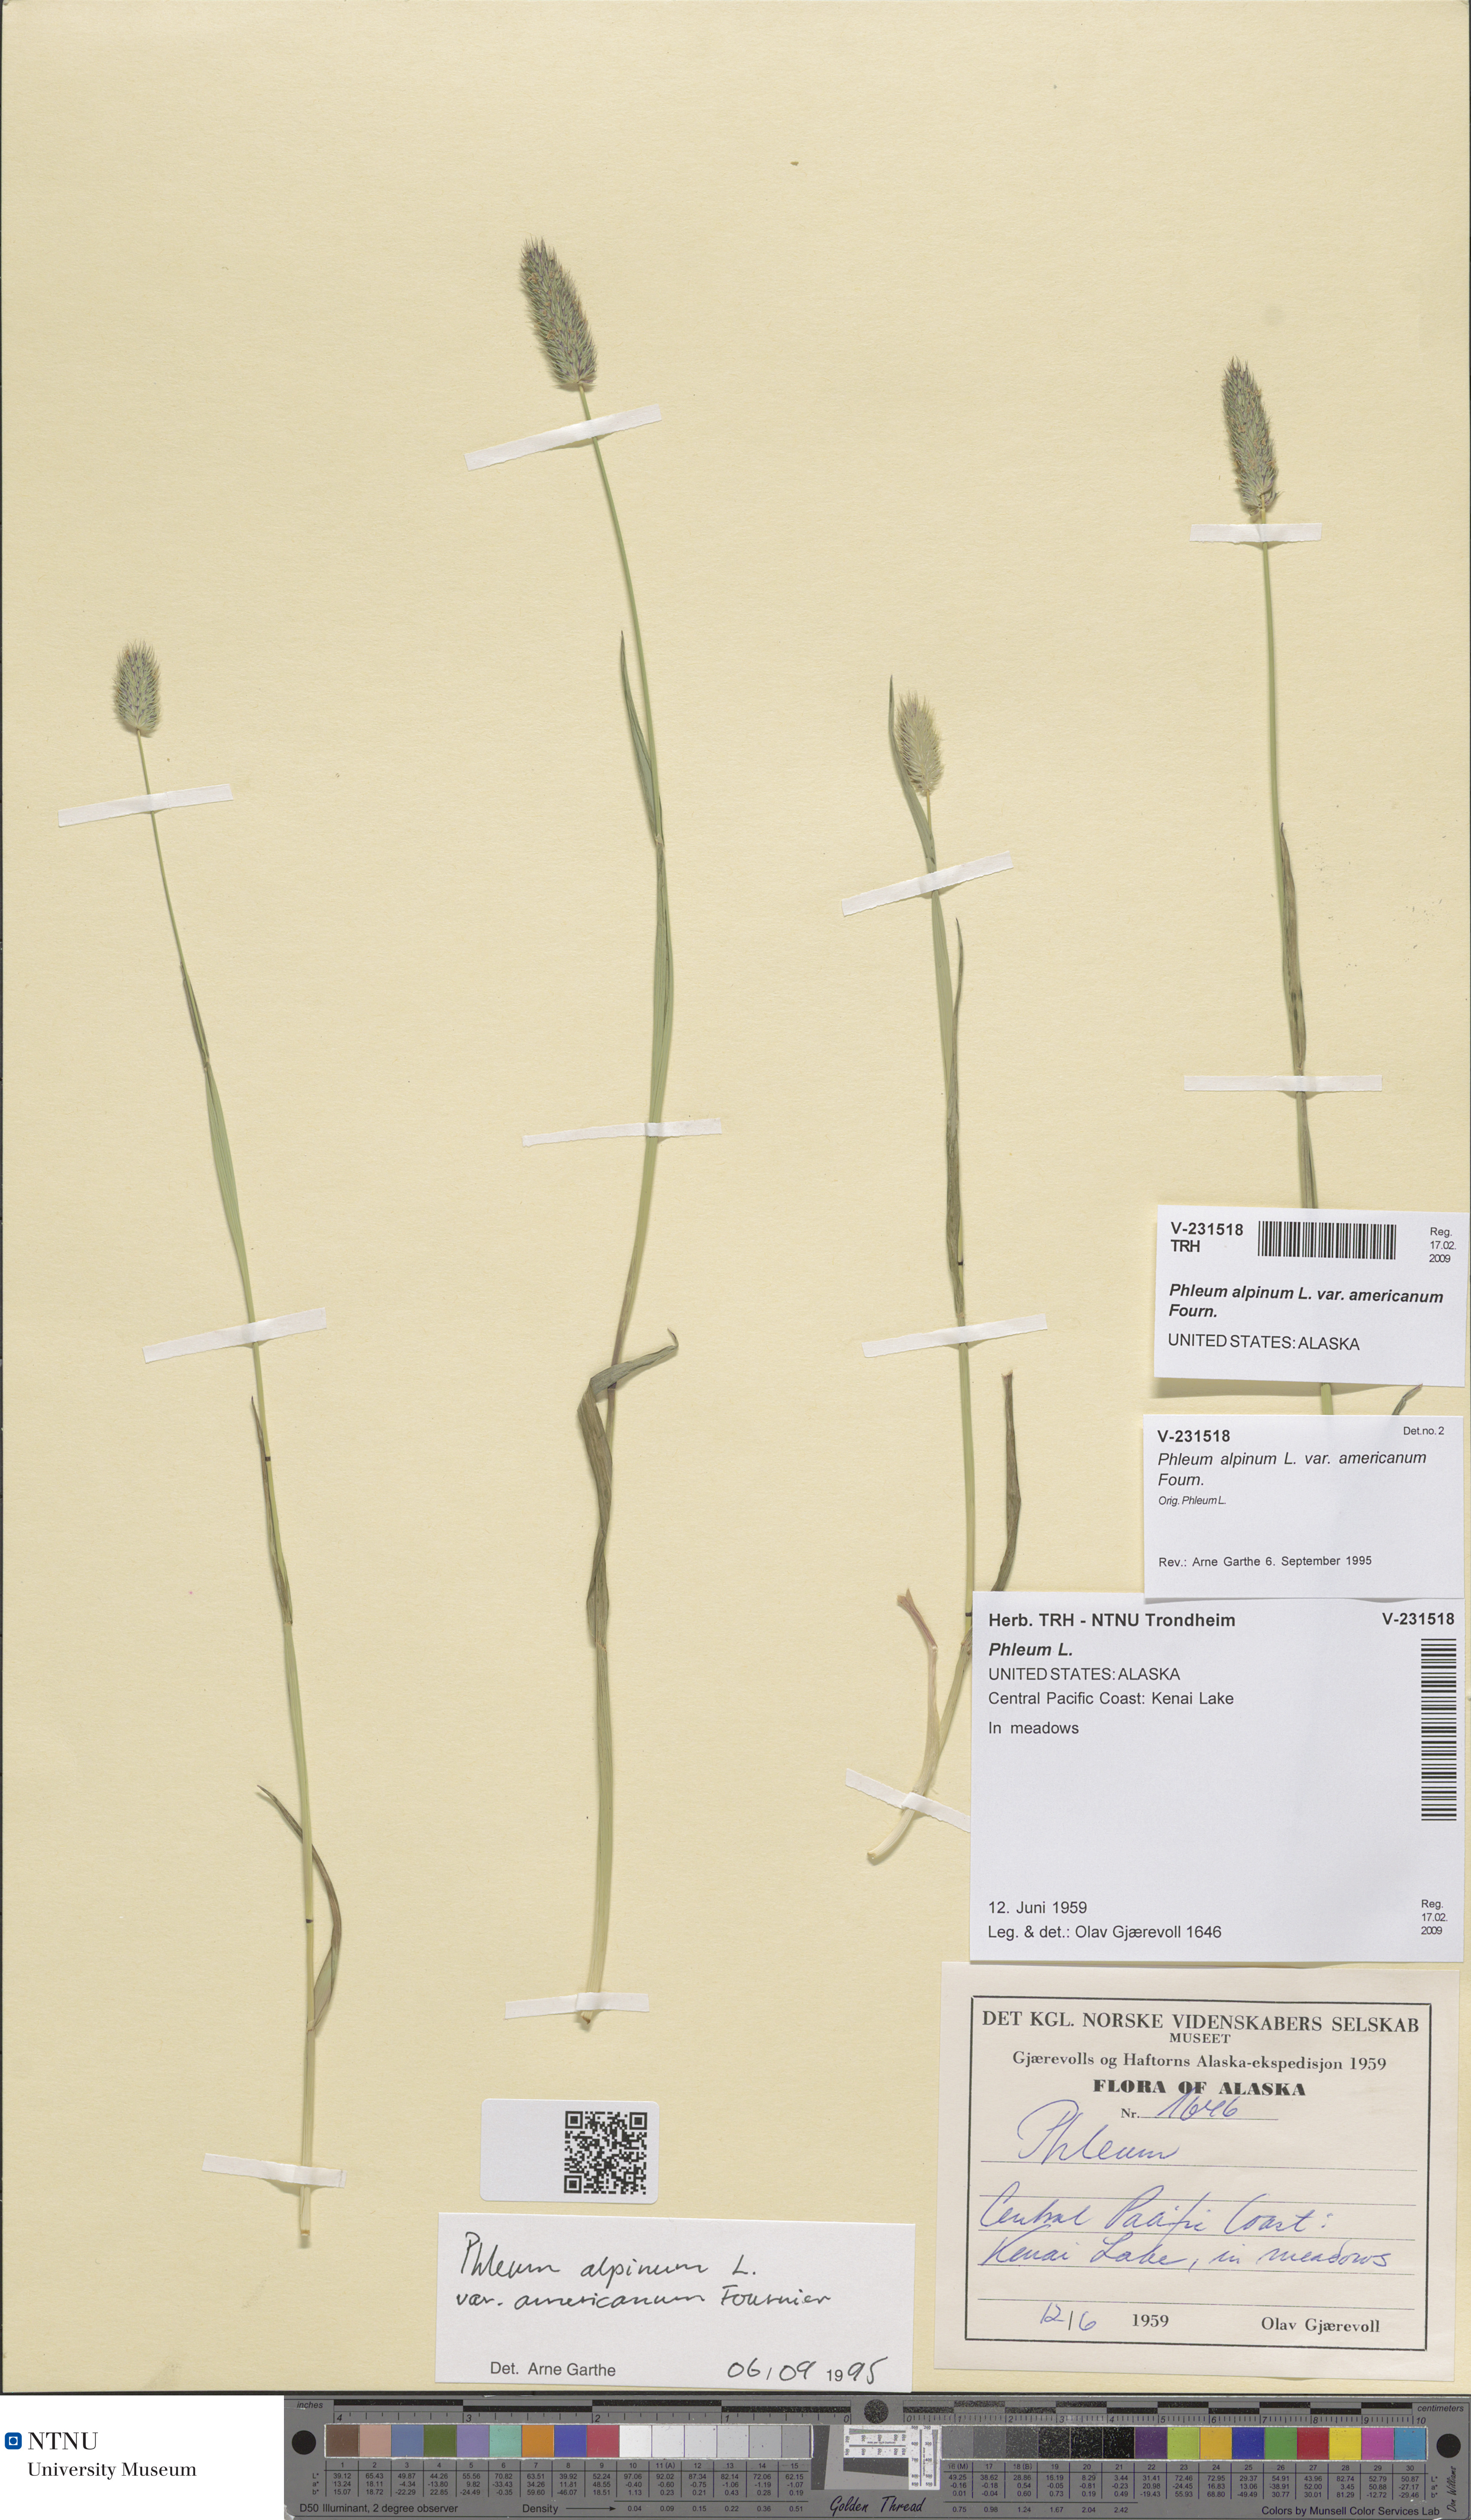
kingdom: Plantae
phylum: Tracheophyta
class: Liliopsida
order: Poales
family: Poaceae
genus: Phleum
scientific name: Phleum alpinum
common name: Alpine cat's-tail
